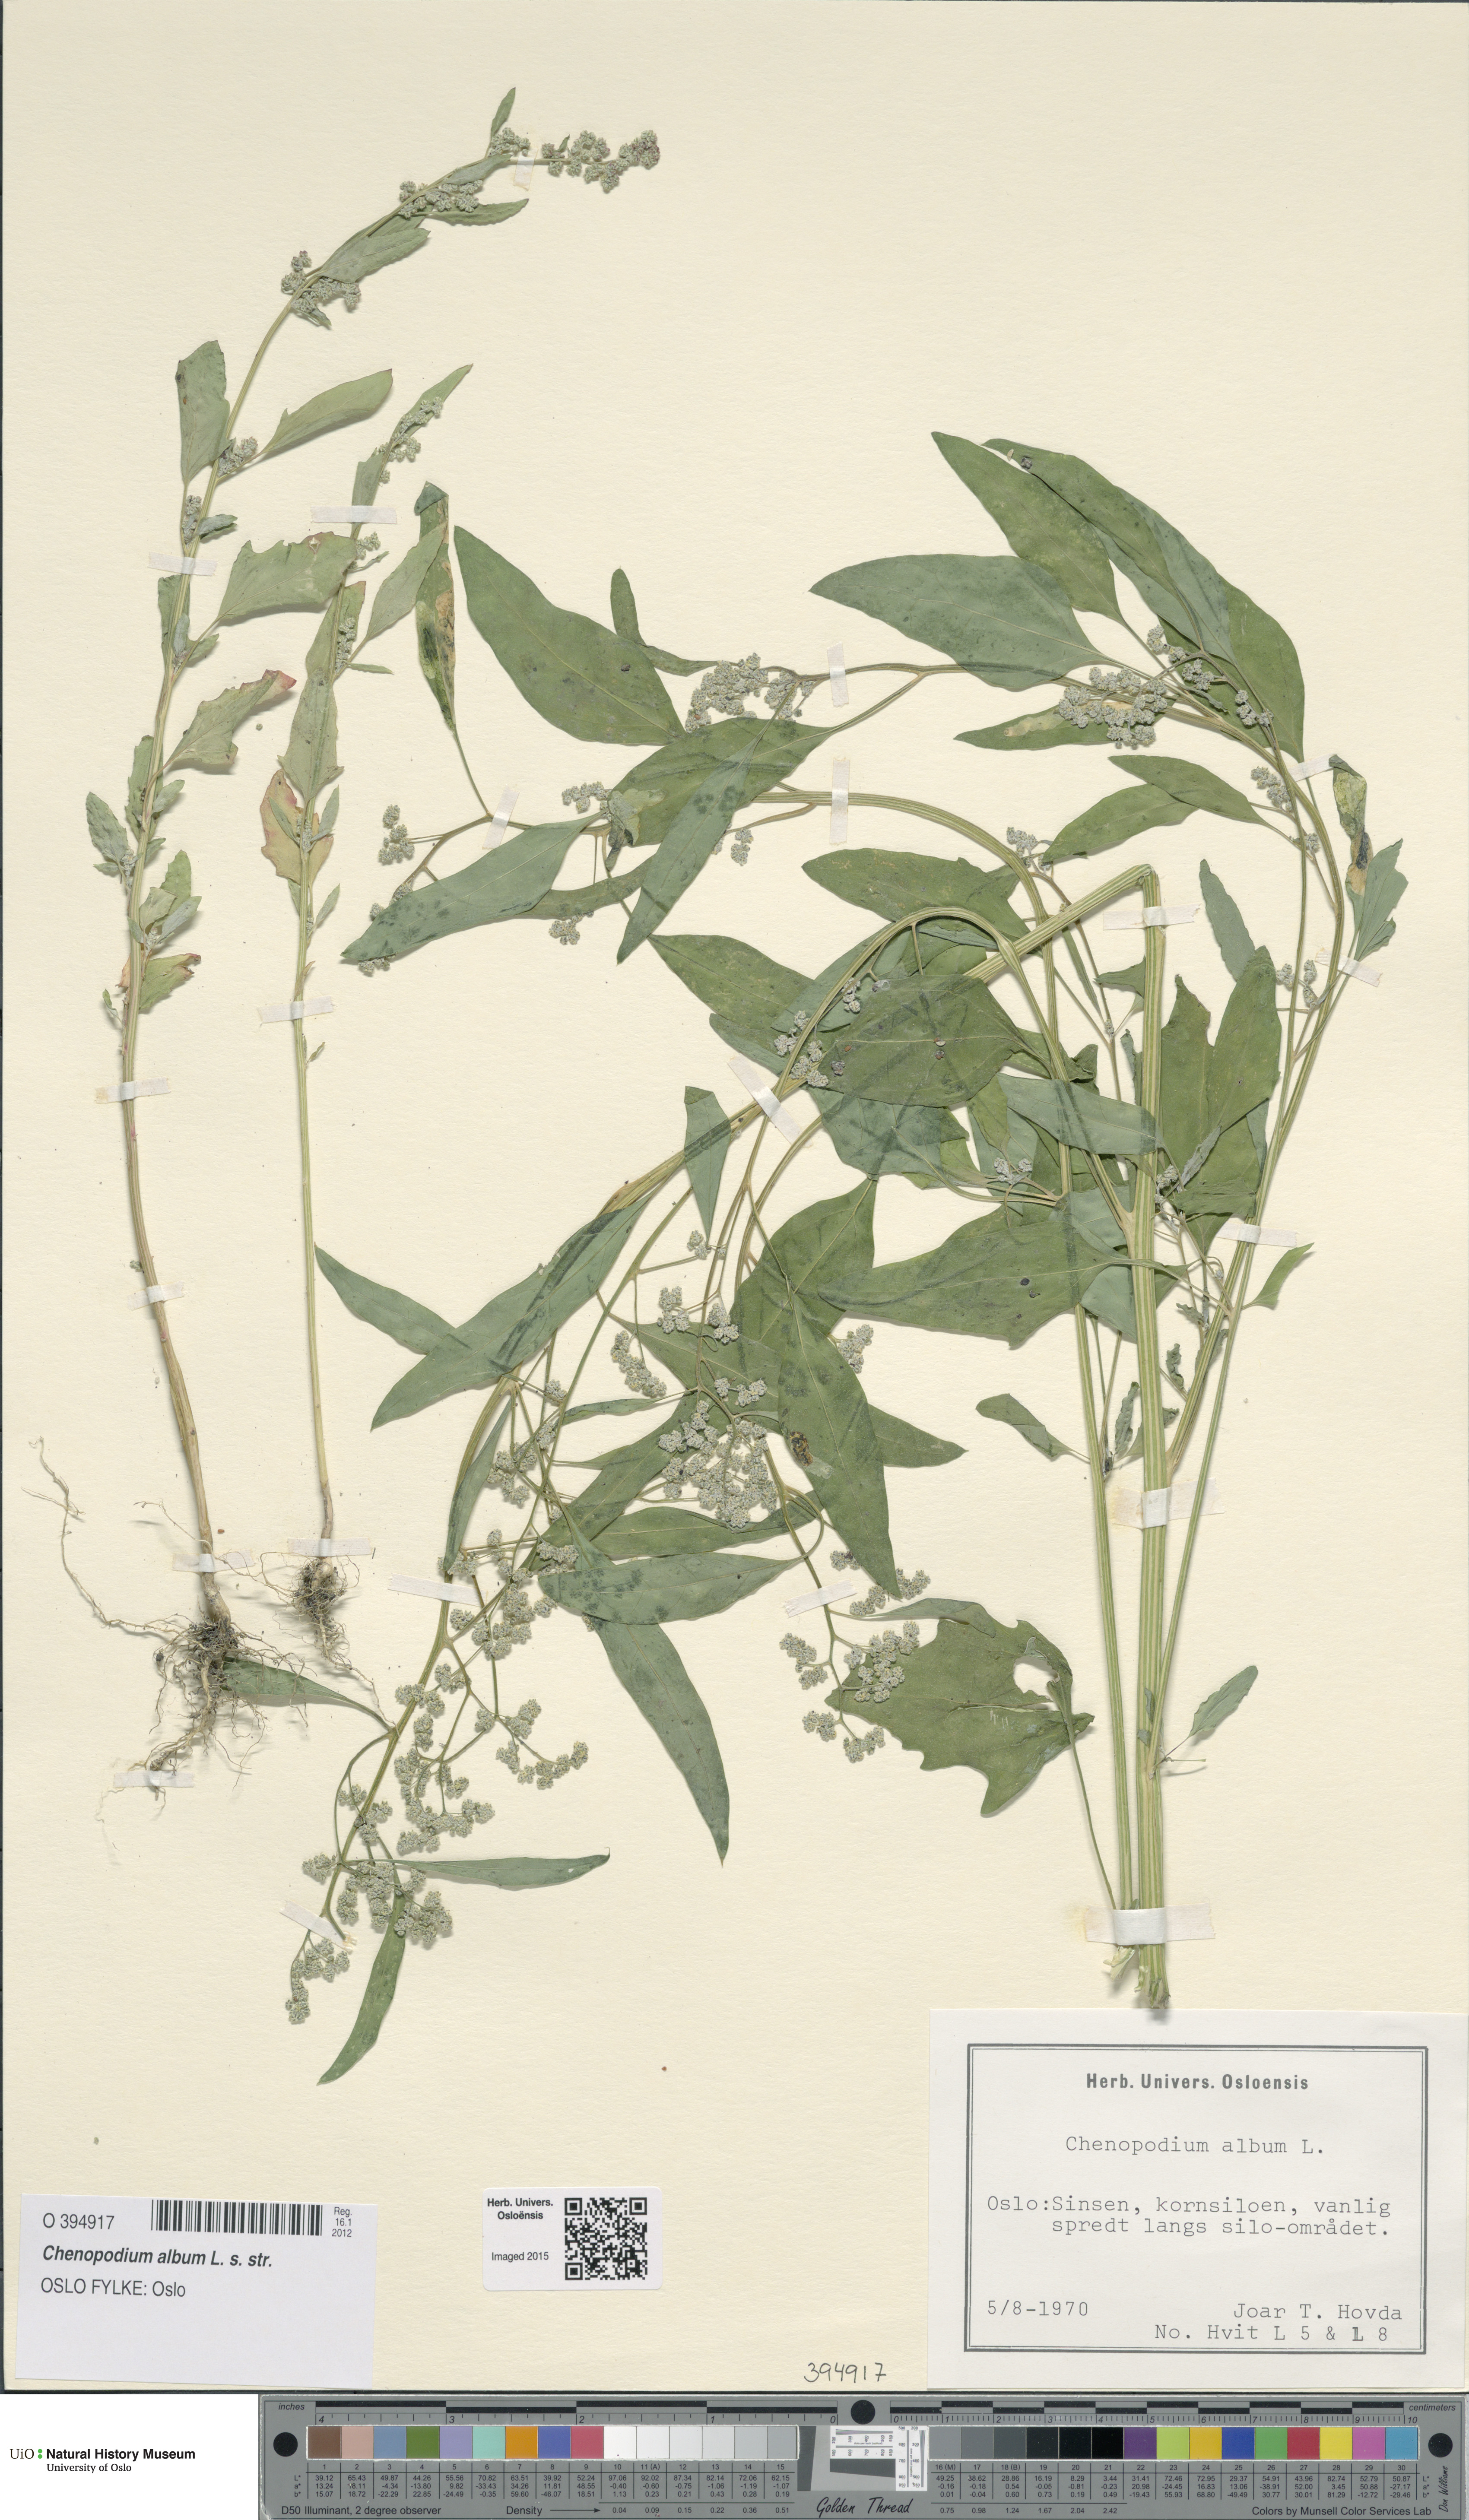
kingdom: Plantae
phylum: Tracheophyta
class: Magnoliopsida
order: Caryophyllales
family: Amaranthaceae
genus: Chenopodium
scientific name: Chenopodium album
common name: Fat-hen
